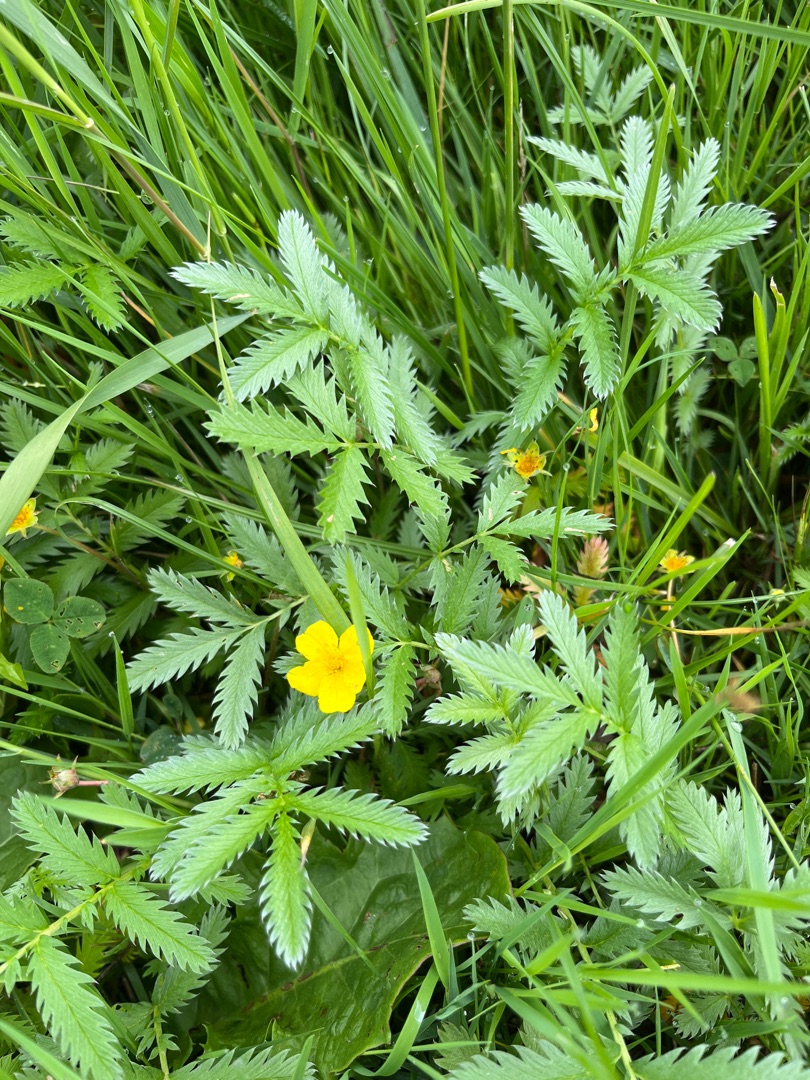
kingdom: Plantae
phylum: Tracheophyta
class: Magnoliopsida
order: Rosales
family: Rosaceae
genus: Argentina
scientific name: Argentina anserina
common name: Gåsepotentil
